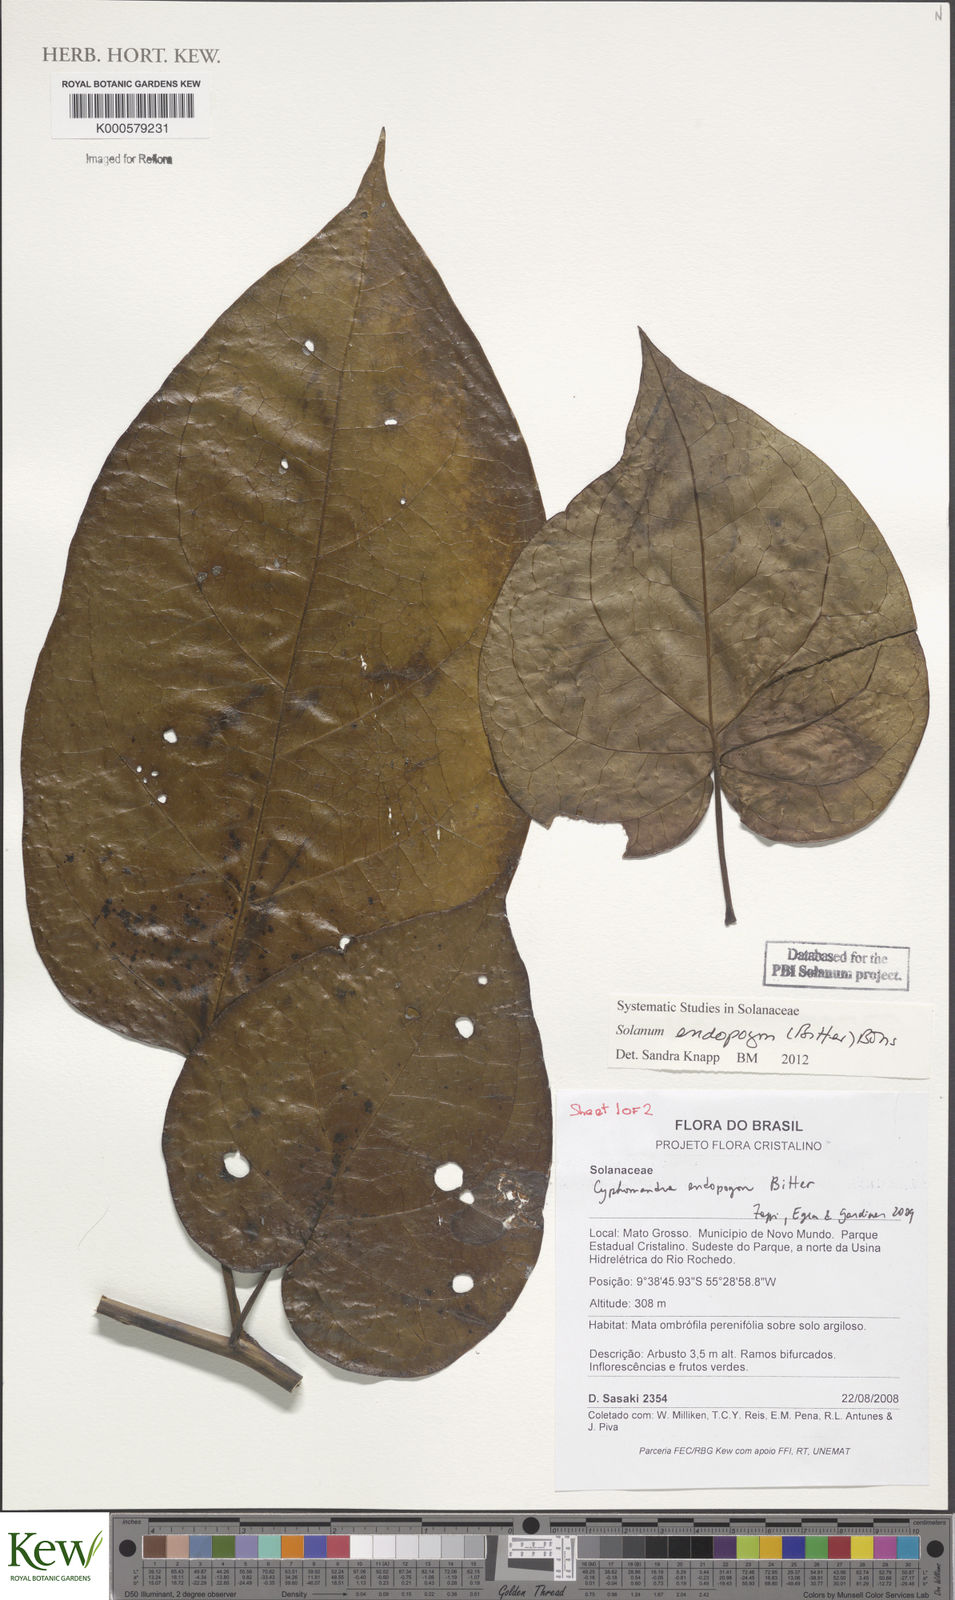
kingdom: Plantae
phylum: Tracheophyta
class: Magnoliopsida
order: Solanales
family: Solanaceae
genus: Solanum
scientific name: Solanum endopogon
